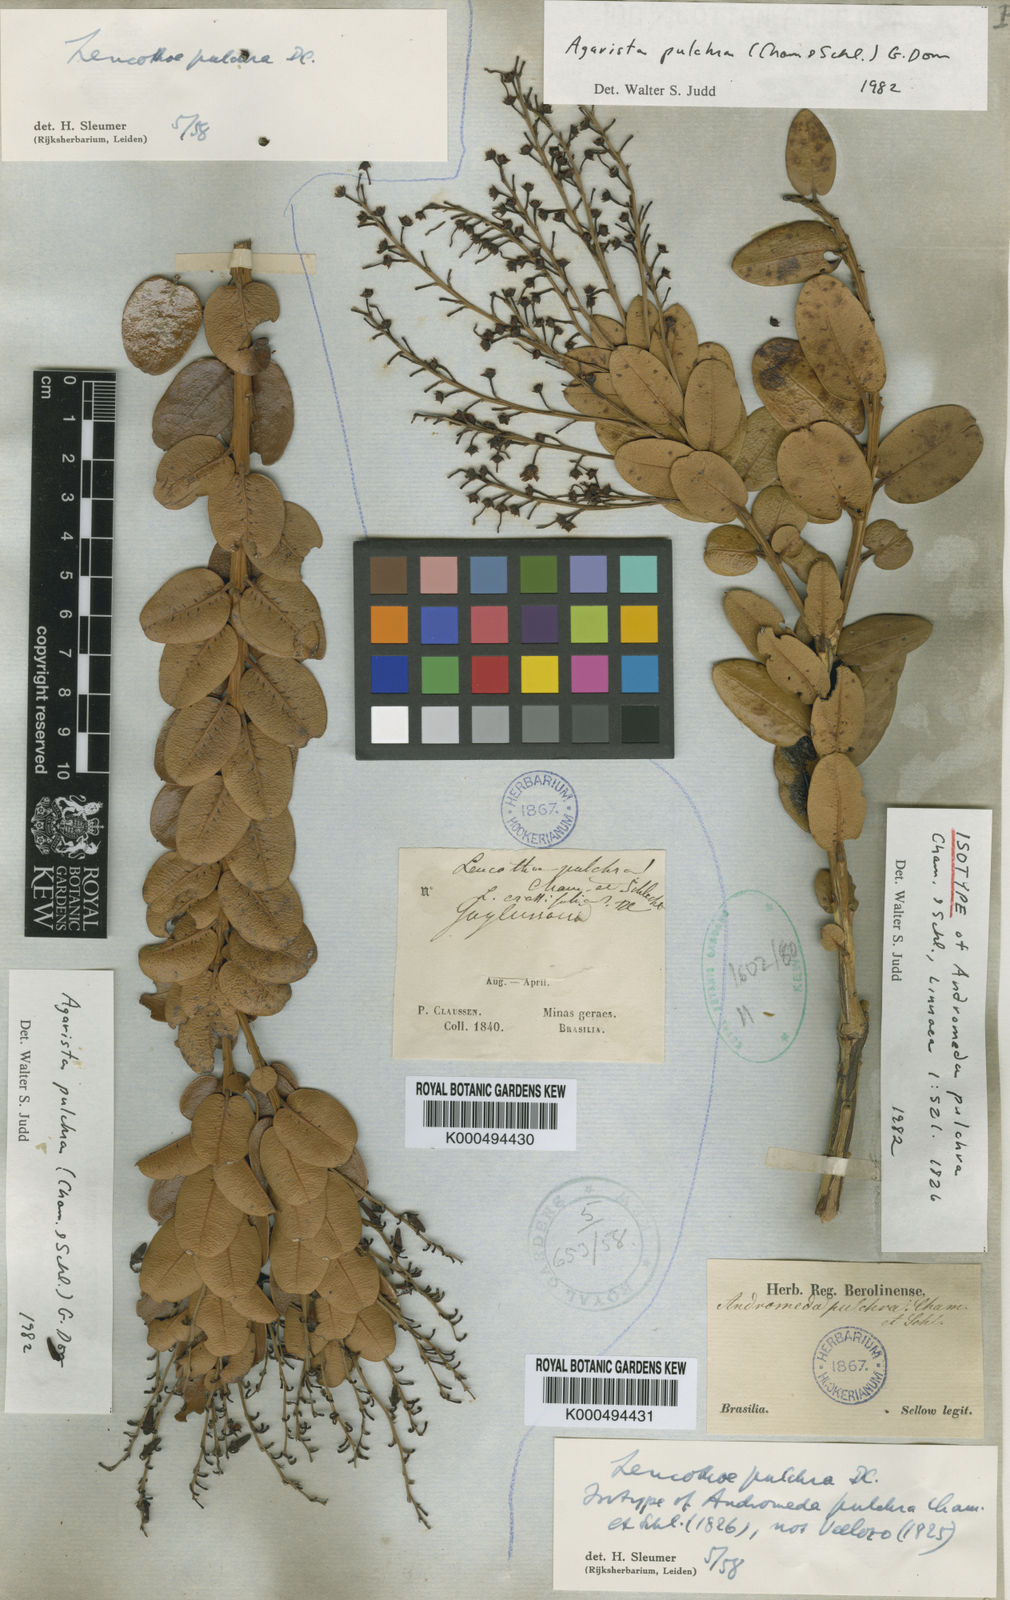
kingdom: Plantae
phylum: Tracheophyta
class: Magnoliopsida
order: Ericales
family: Ericaceae
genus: Agarista
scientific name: Agarista pulchra
